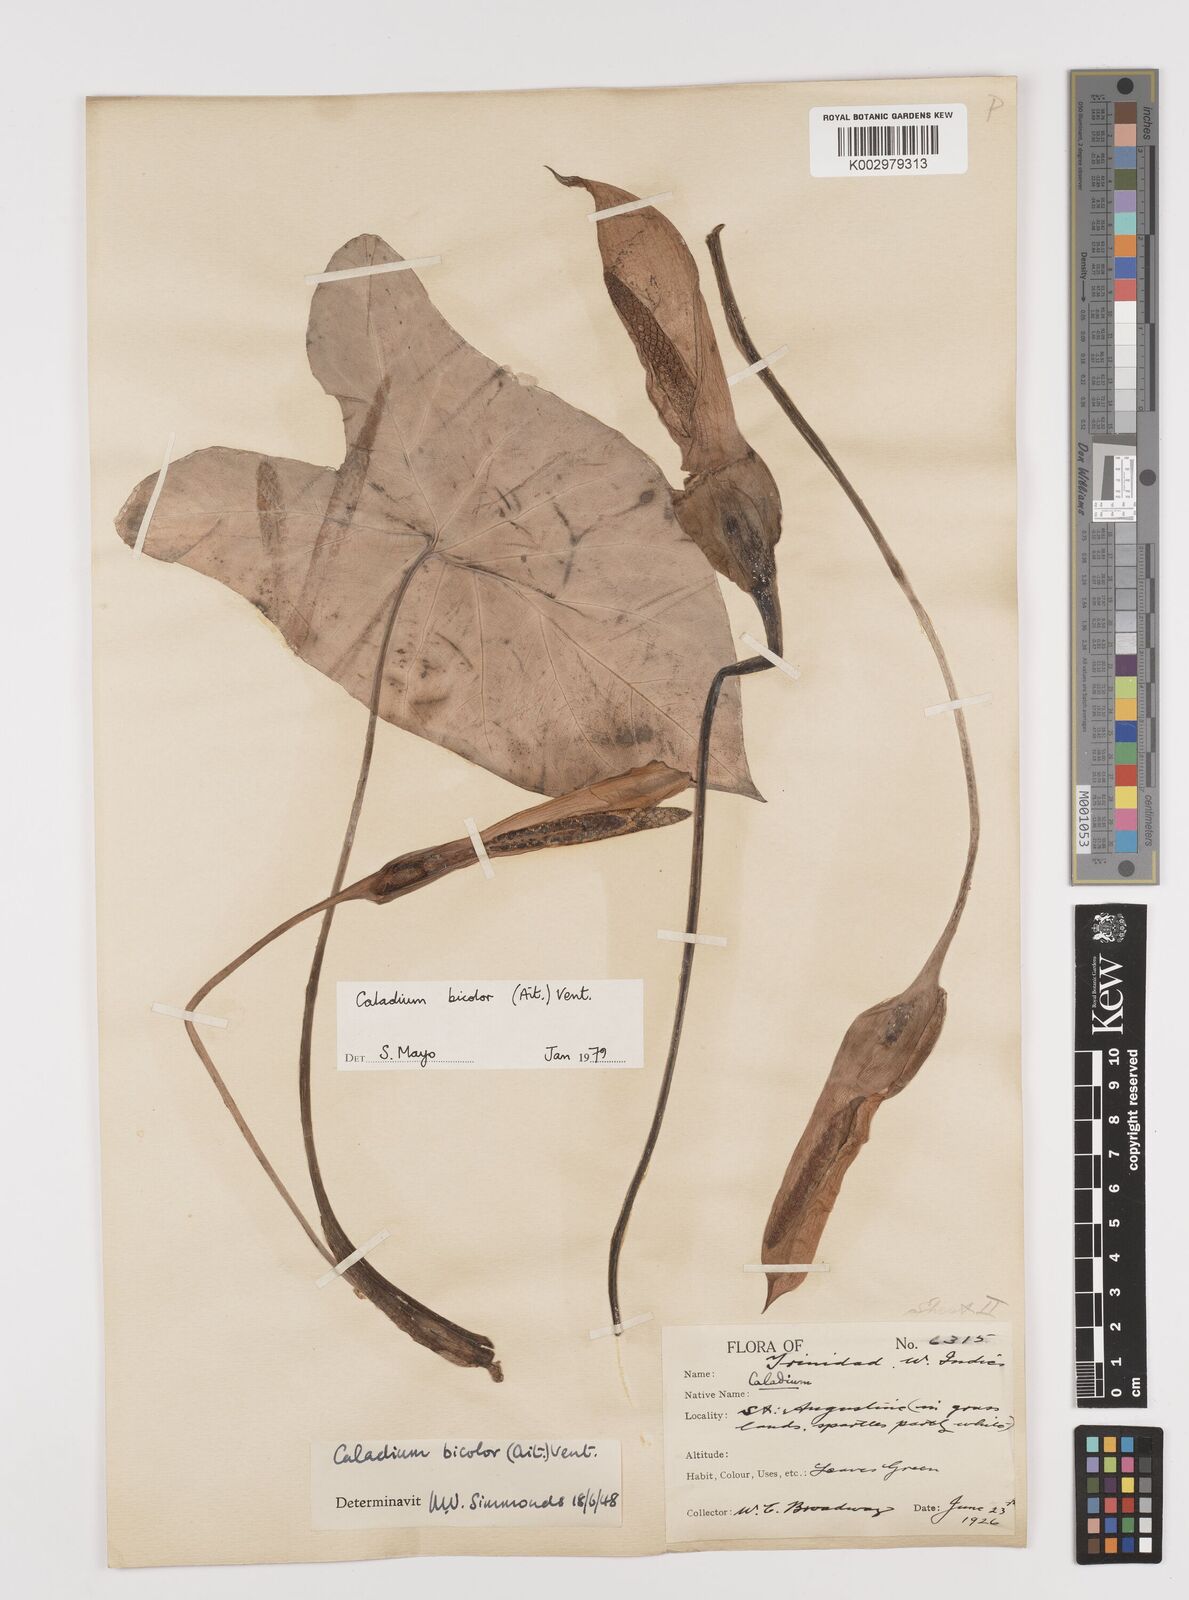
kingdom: Plantae
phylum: Tracheophyta
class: Liliopsida
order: Alismatales
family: Araceae
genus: Caladium
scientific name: Caladium bicolor
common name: Artist's pallet
